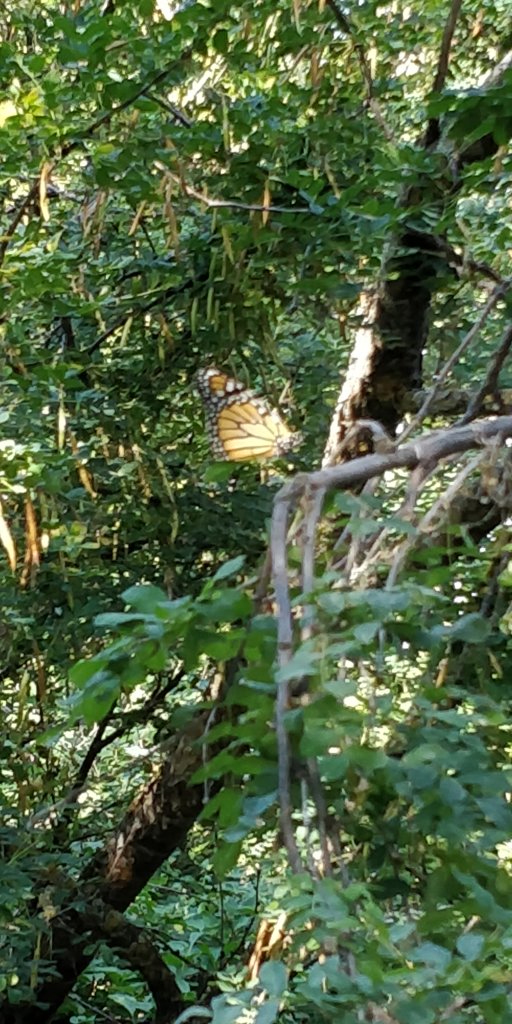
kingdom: Animalia
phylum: Arthropoda
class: Insecta
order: Lepidoptera
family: Nymphalidae
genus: Danaus
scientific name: Danaus plexippus
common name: Monarch
